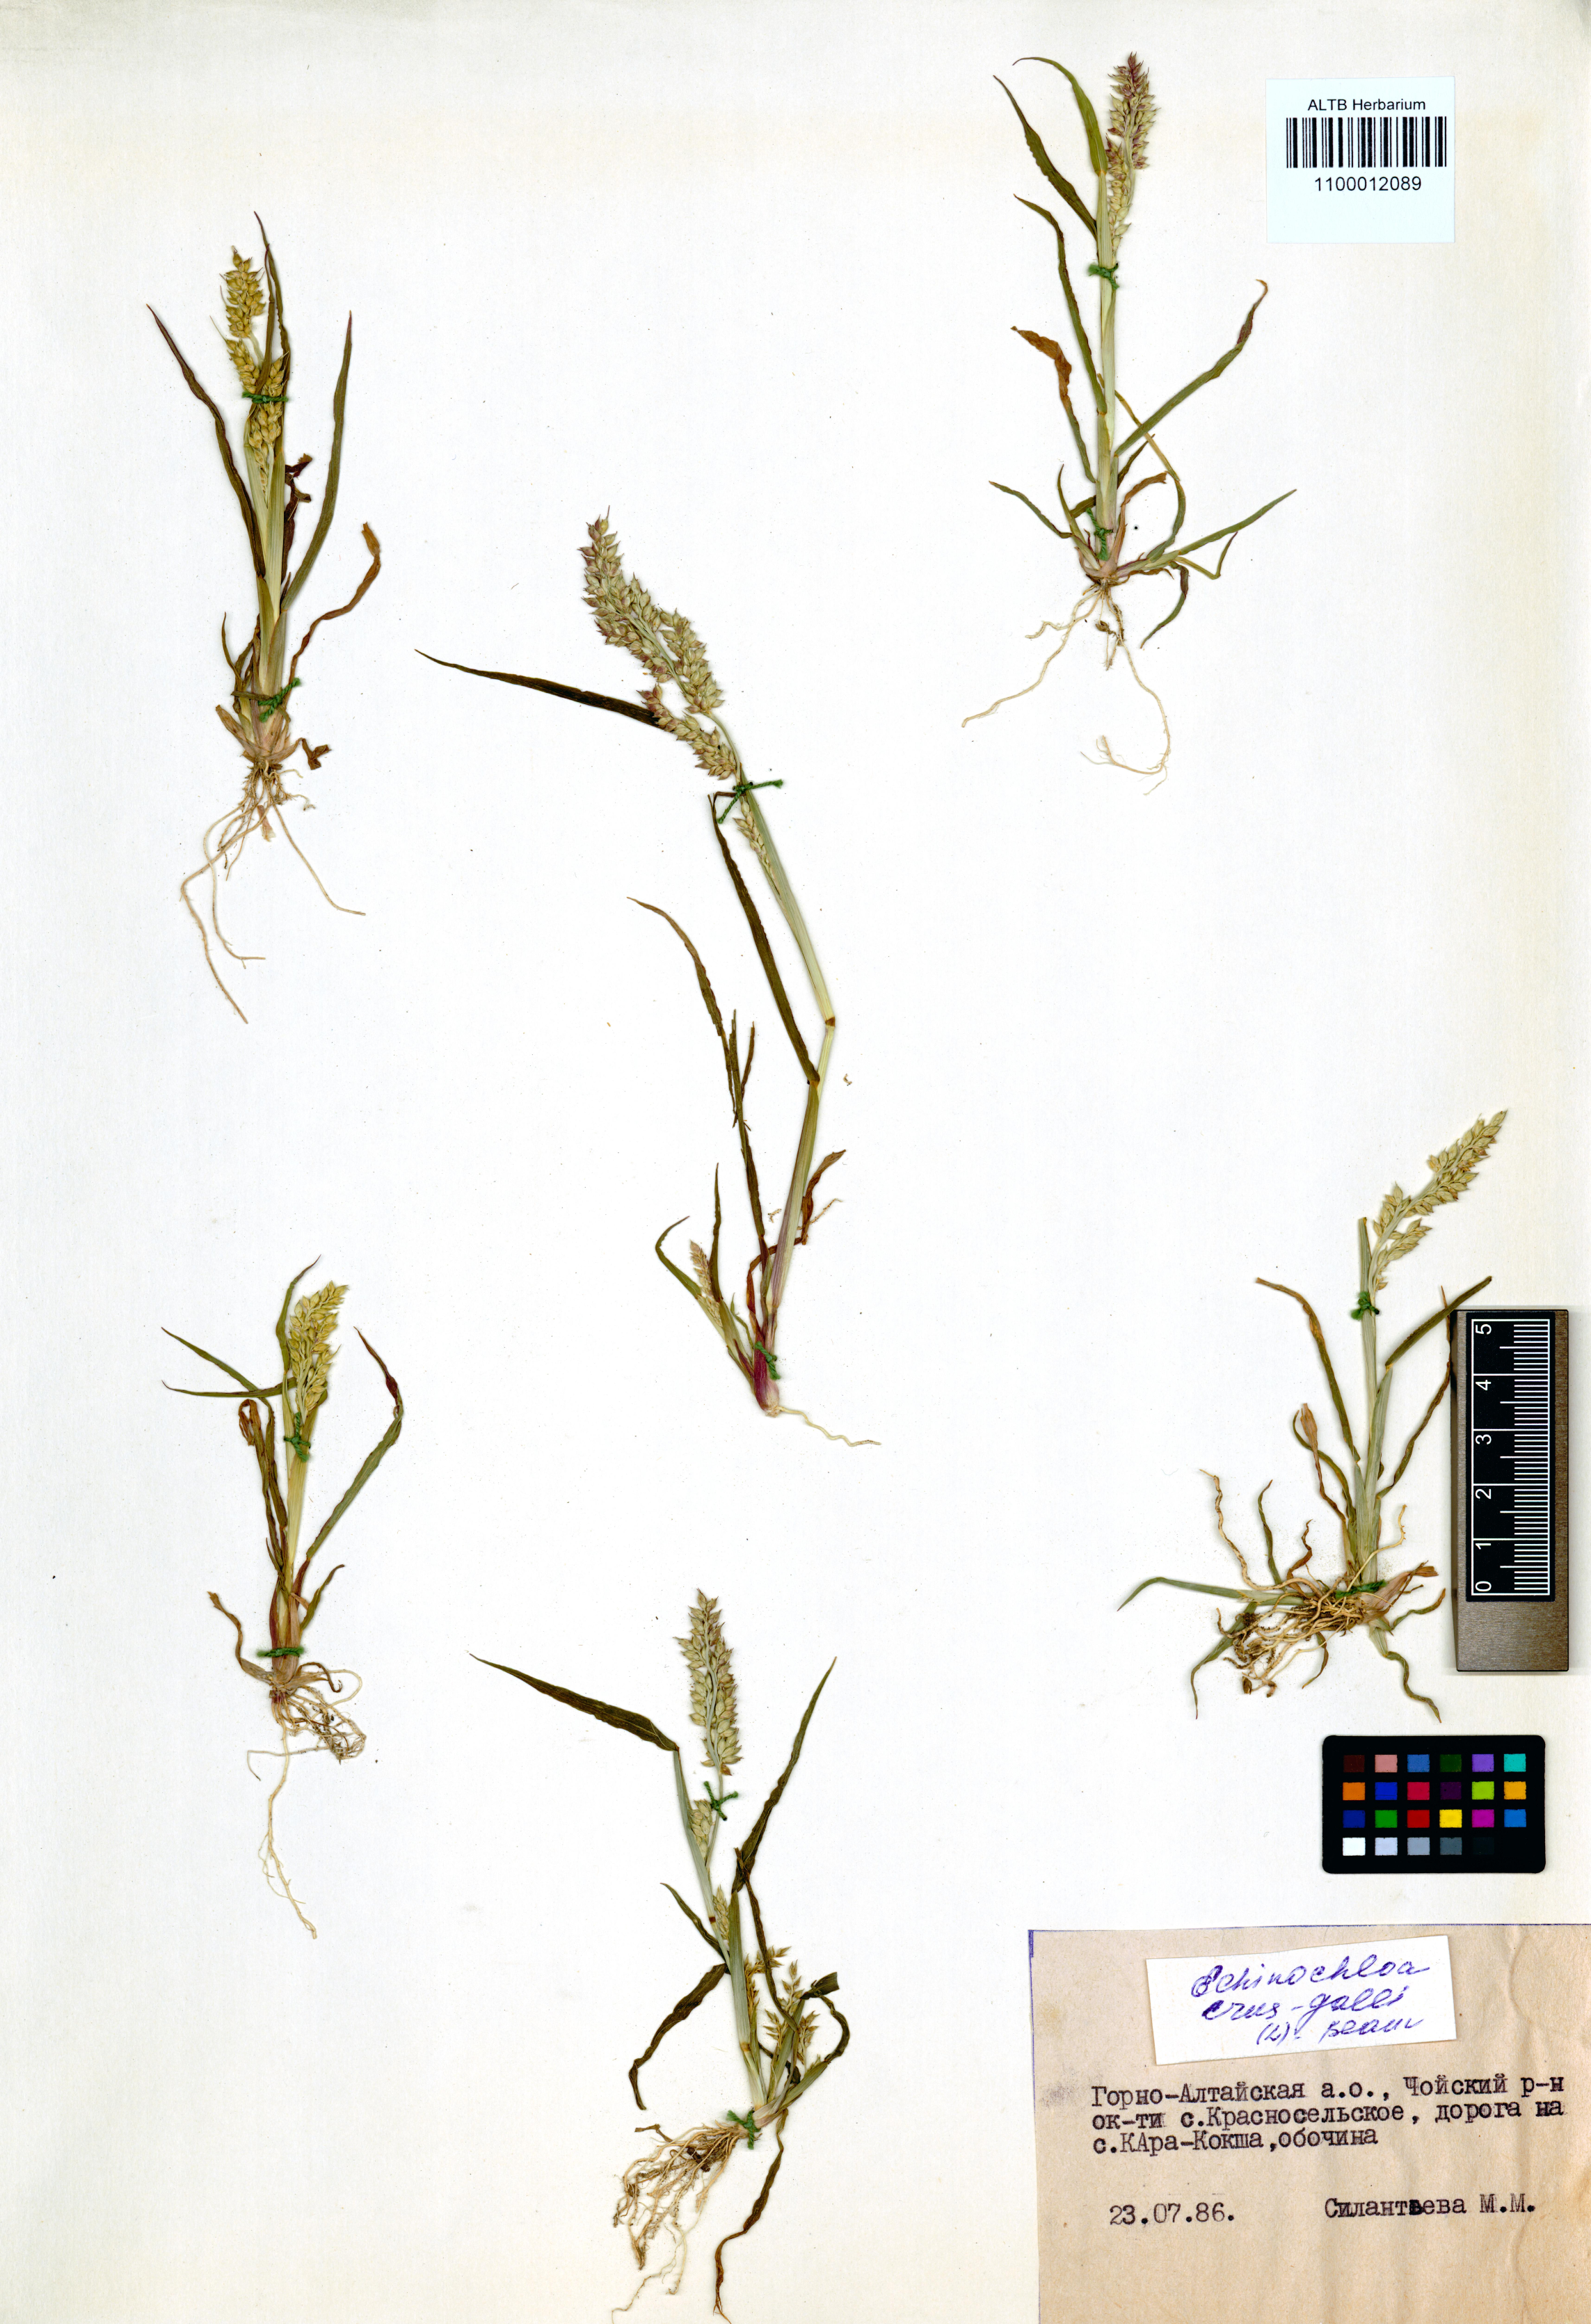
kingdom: Plantae
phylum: Tracheophyta
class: Liliopsida
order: Poales
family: Poaceae
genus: Echinochloa
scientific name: Echinochloa crus-galli
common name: Cockspur
